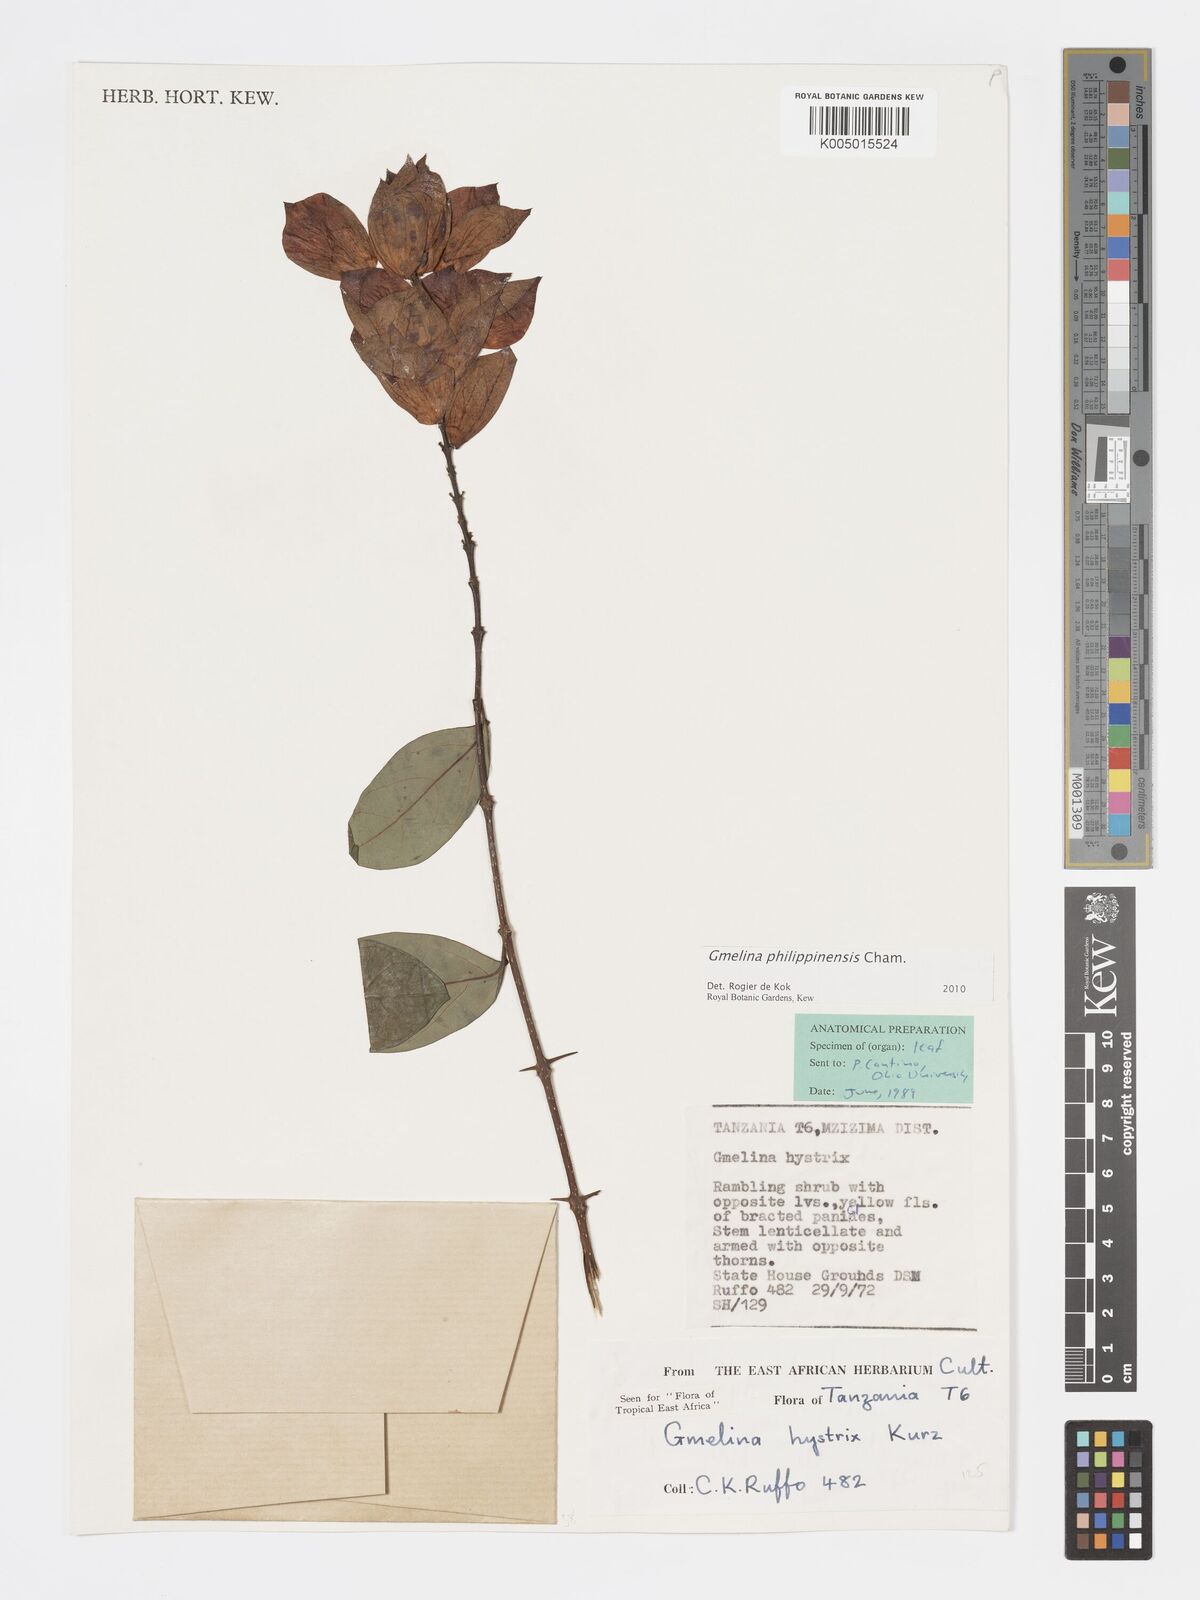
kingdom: Plantae
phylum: Tracheophyta
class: Magnoliopsida
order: Lamiales
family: Lamiaceae
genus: Gmelina
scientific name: Gmelina philippensis
